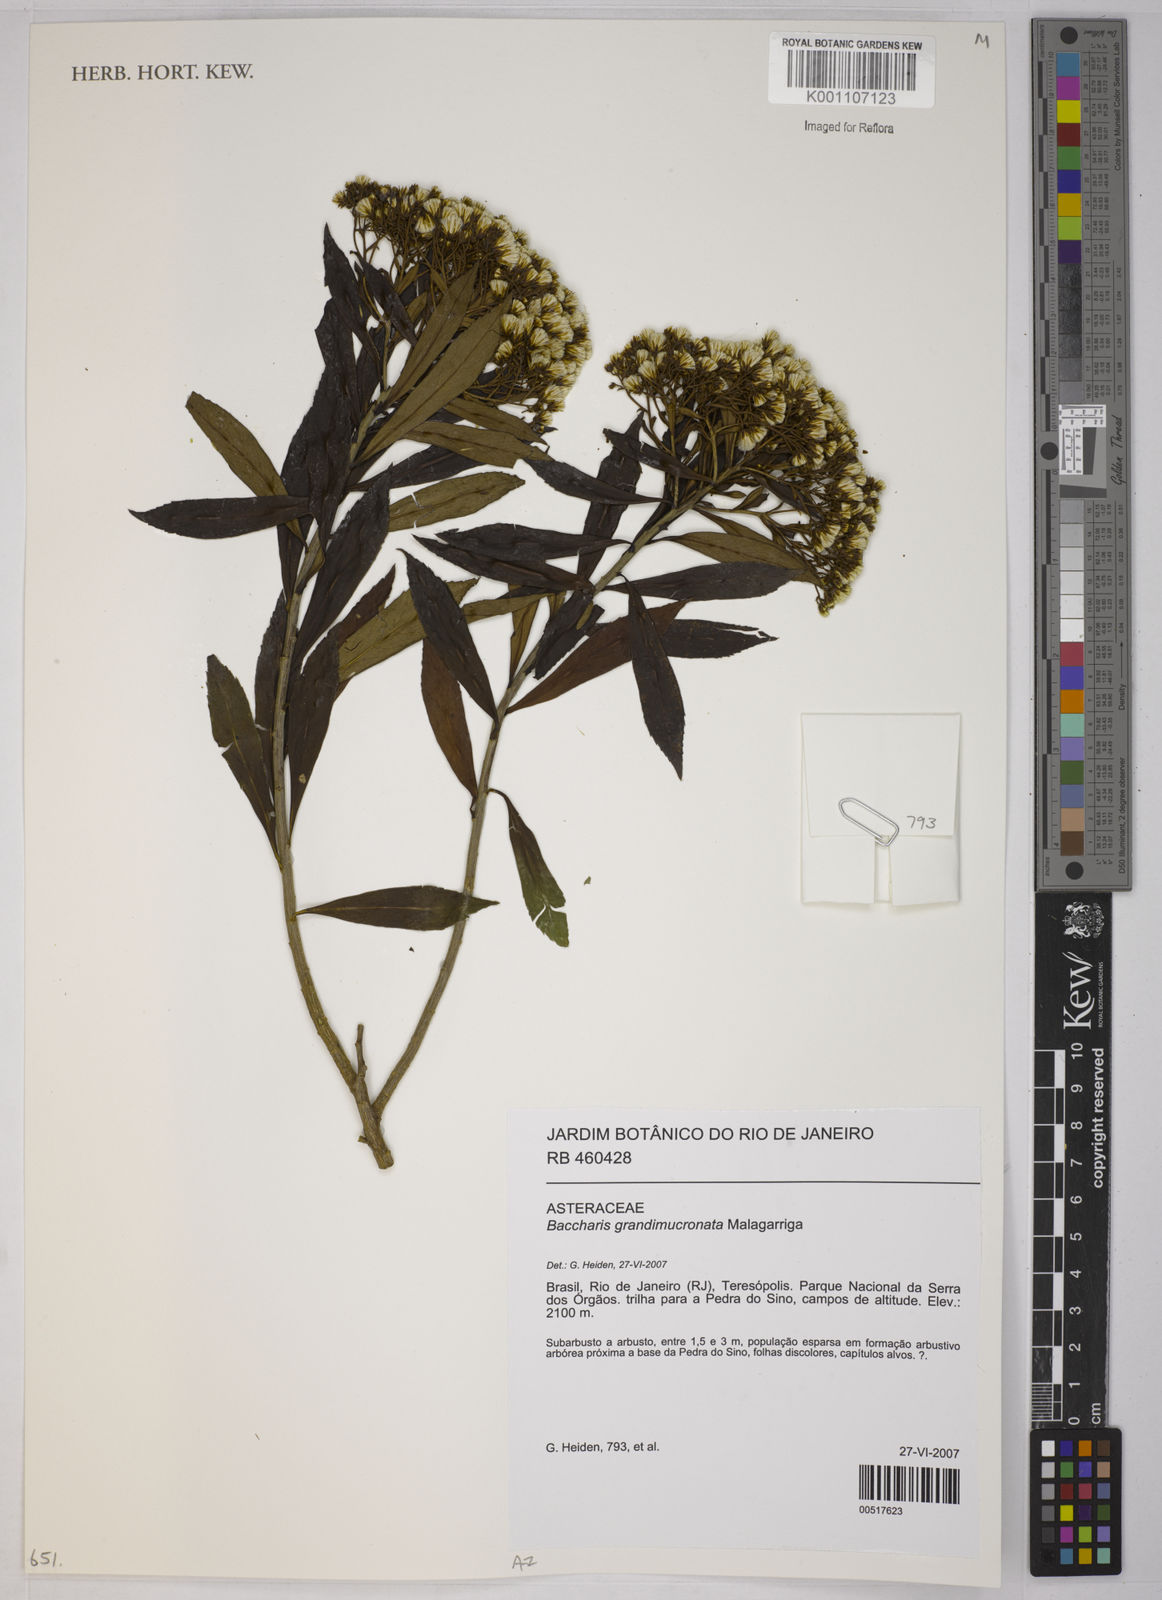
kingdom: Plantae
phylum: Tracheophyta
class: Magnoliopsida
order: Asterales
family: Asteraceae
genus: Baccharis
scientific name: Baccharis grandimucronata
